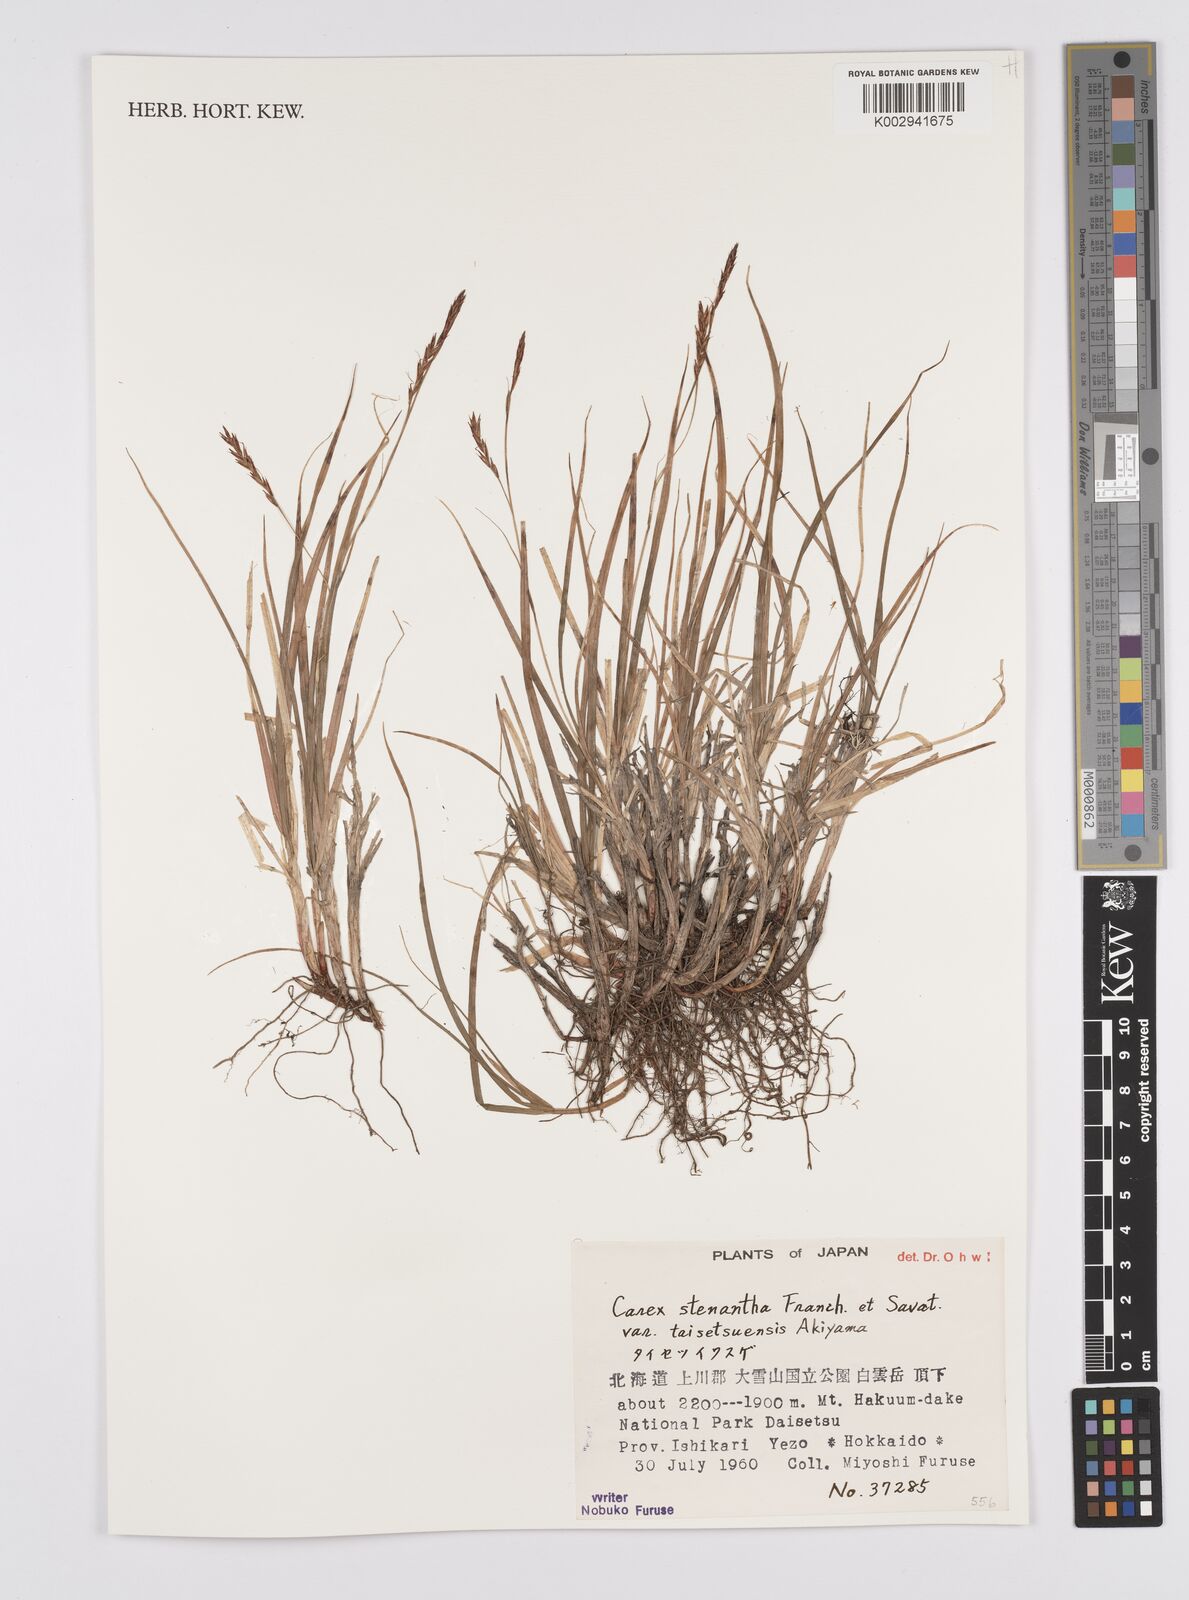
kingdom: Plantae
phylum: Tracheophyta
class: Liliopsida
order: Poales
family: Cyperaceae
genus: Carex
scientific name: Carex stenantha
